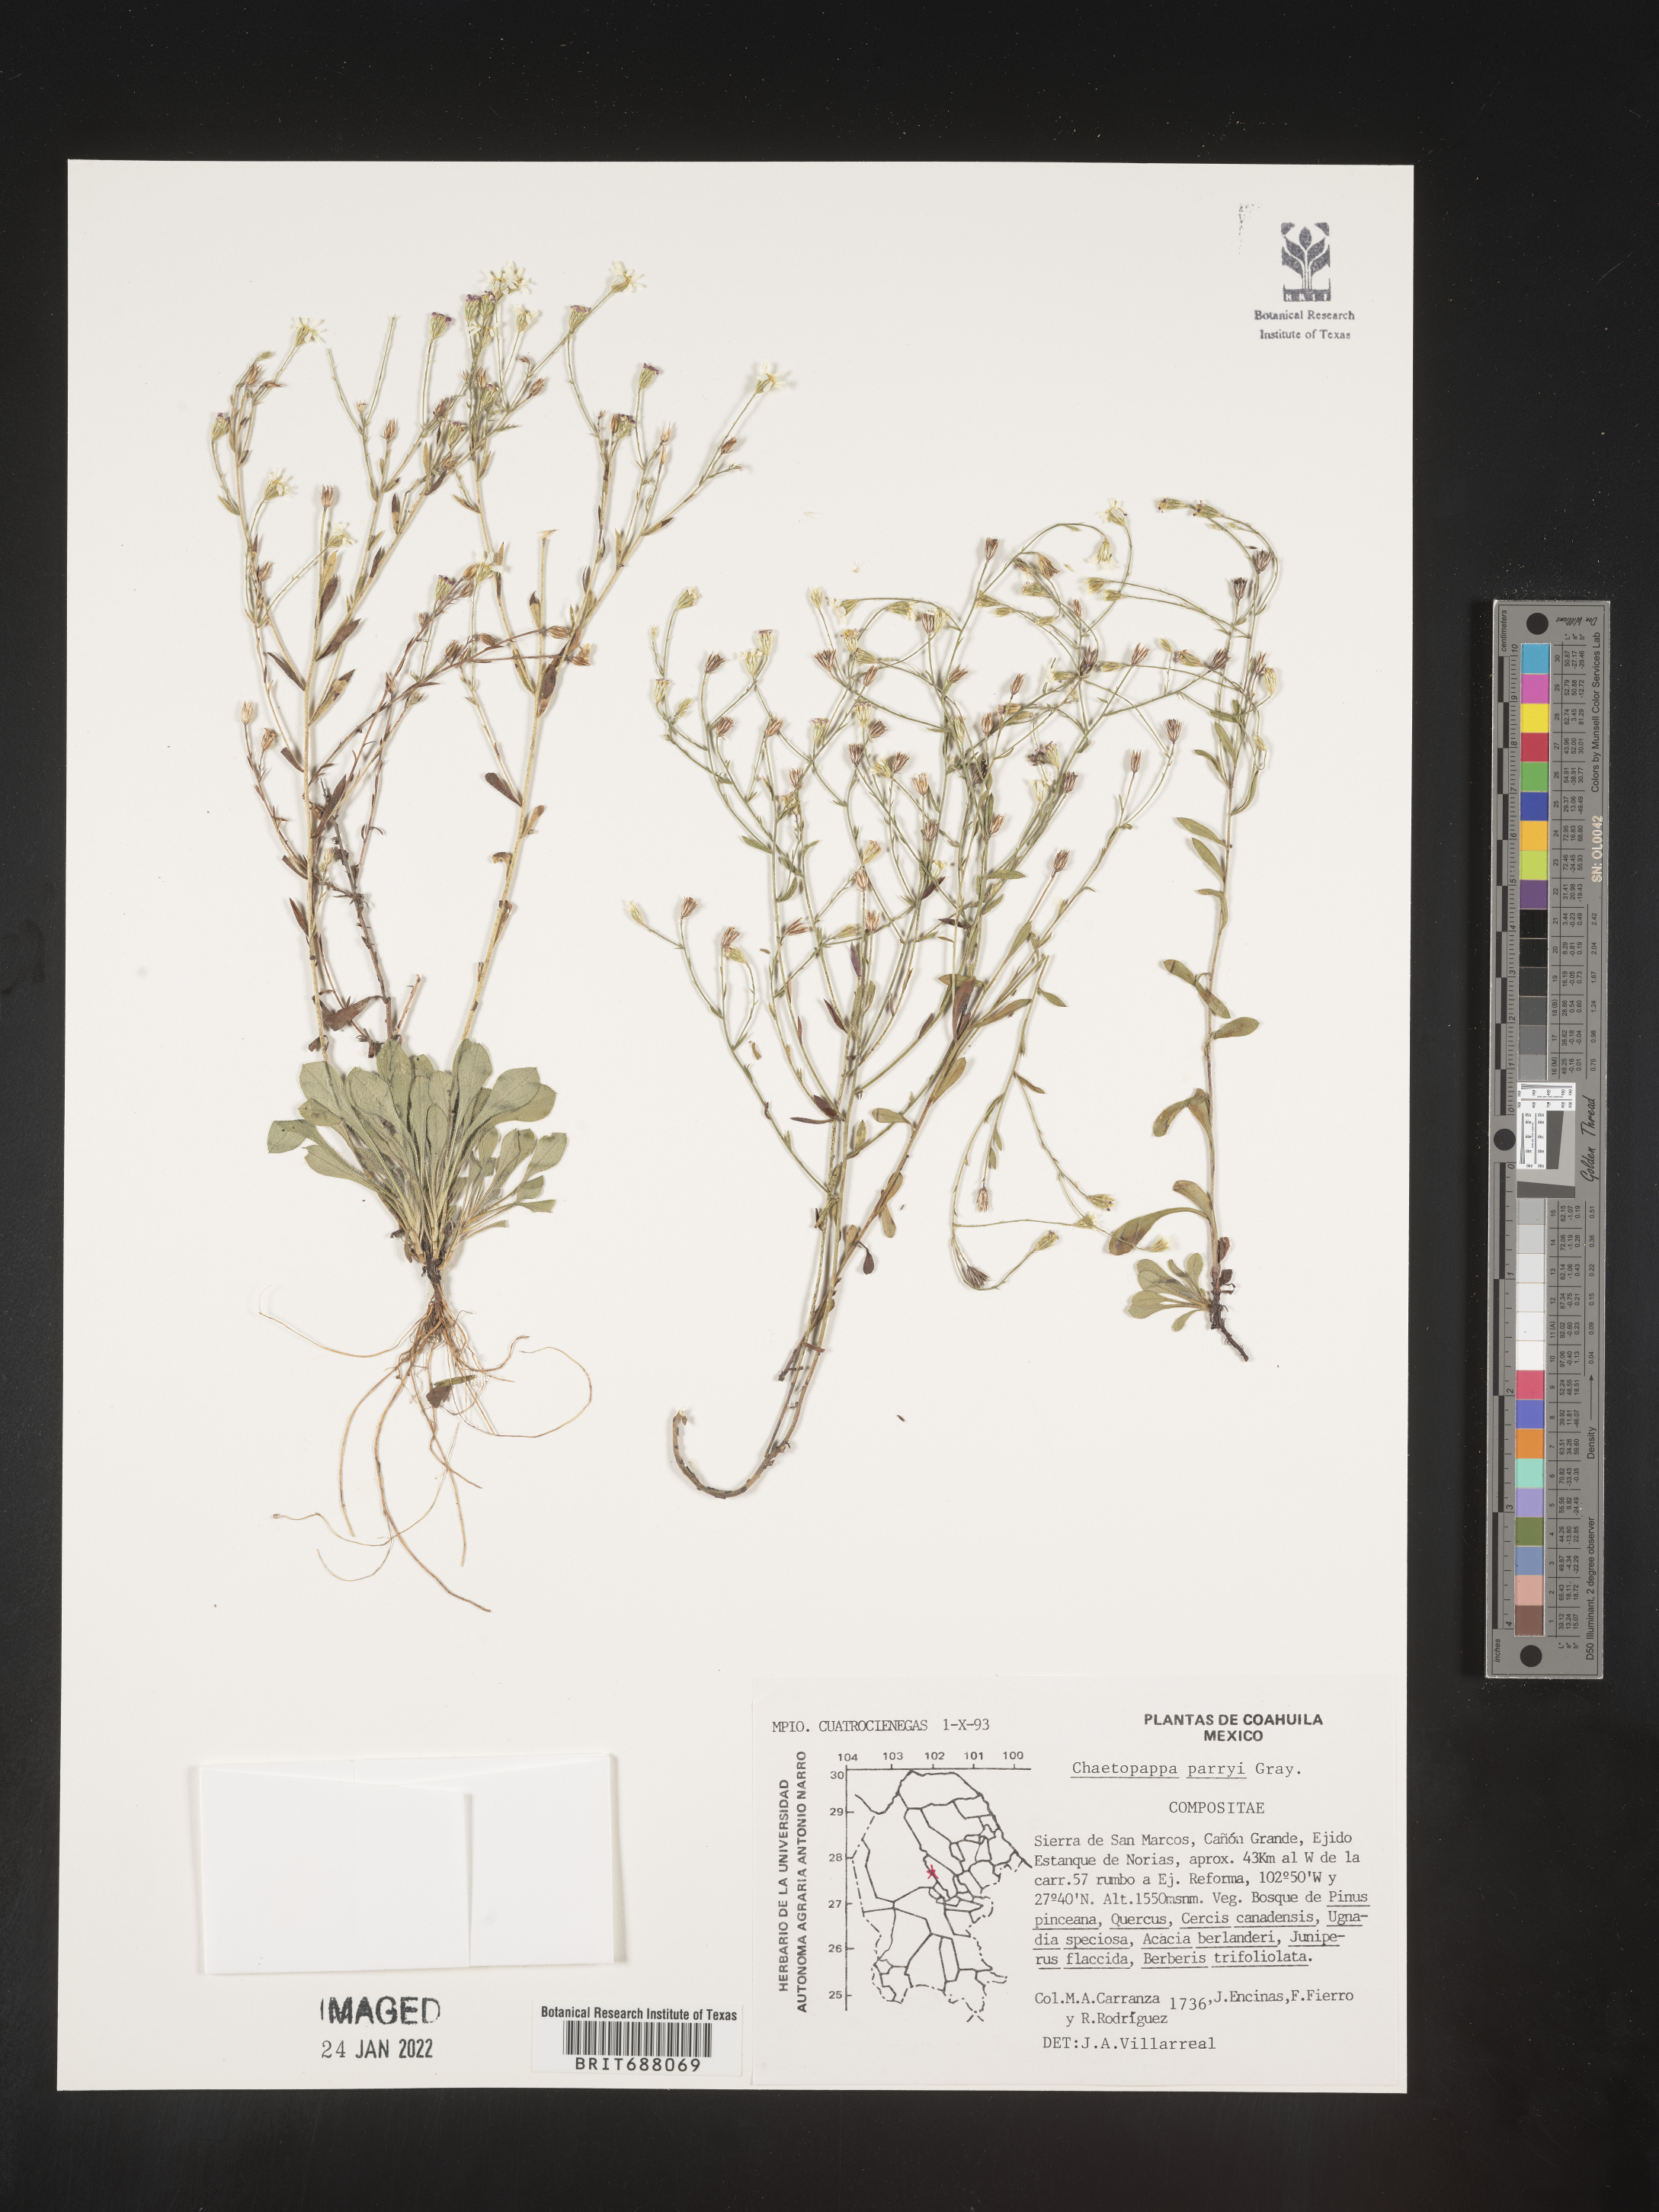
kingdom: Plantae
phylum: Tracheophyta
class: Magnoliopsida
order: Asterales
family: Asteraceae
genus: Chaetopappa
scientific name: Chaetopappa
